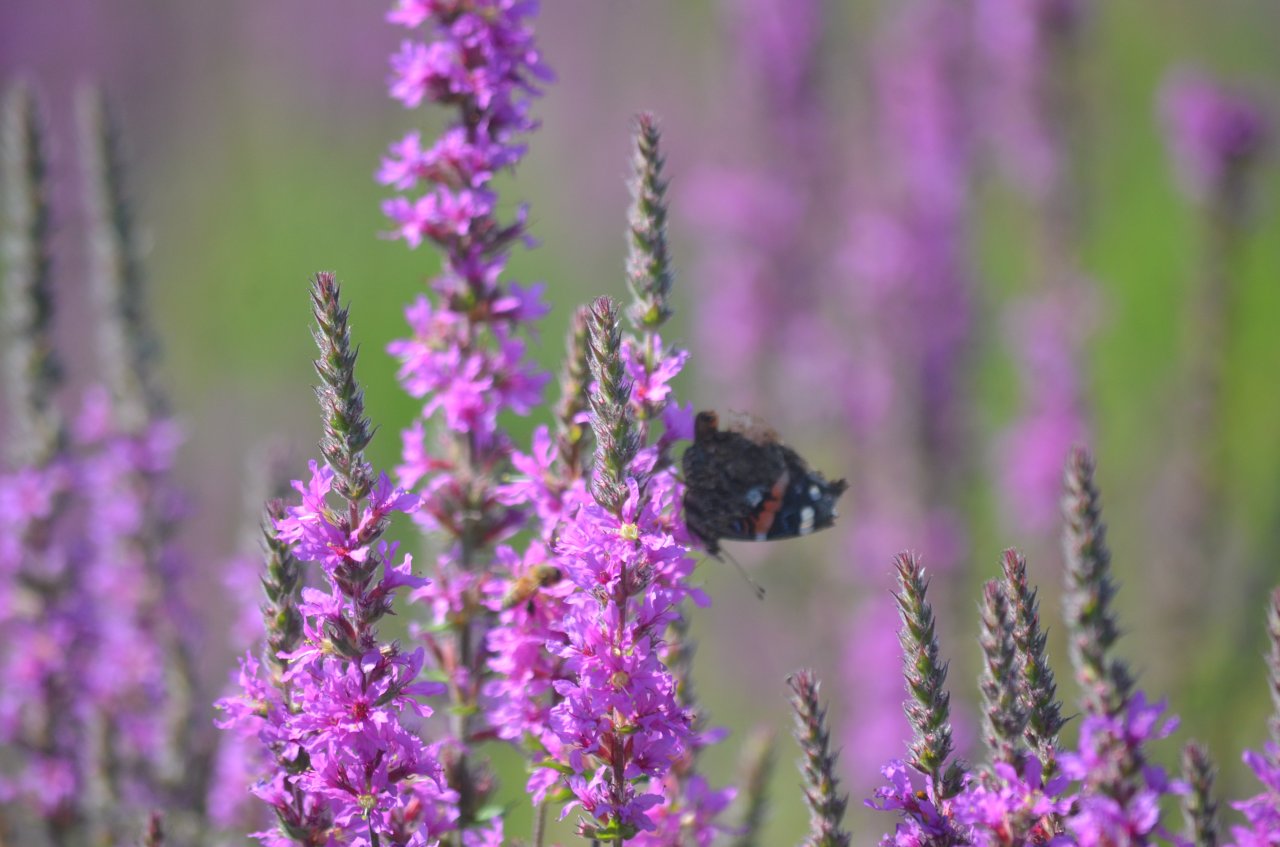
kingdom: Animalia
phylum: Arthropoda
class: Insecta
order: Lepidoptera
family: Nymphalidae
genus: Vanessa
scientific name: Vanessa atalanta
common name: Red Admiral
